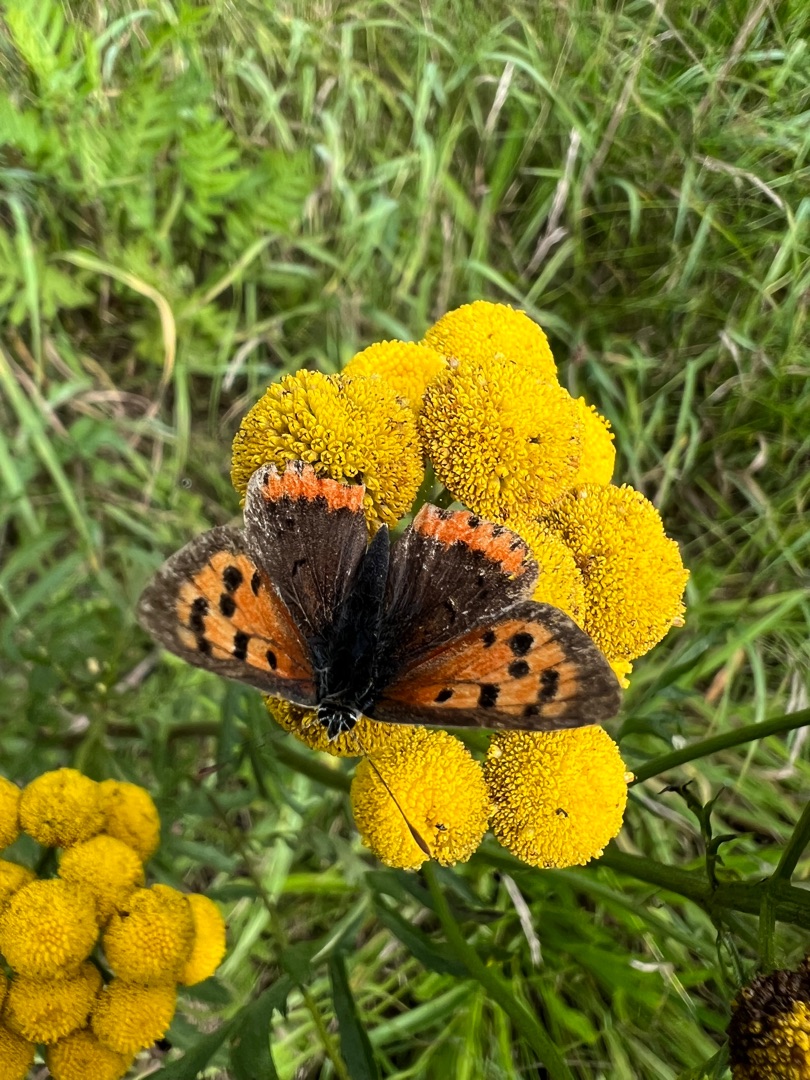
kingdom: Animalia
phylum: Arthropoda
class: Insecta
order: Lepidoptera
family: Lycaenidae
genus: Lycaena
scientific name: Lycaena phlaeas
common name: Lille ildfugl
